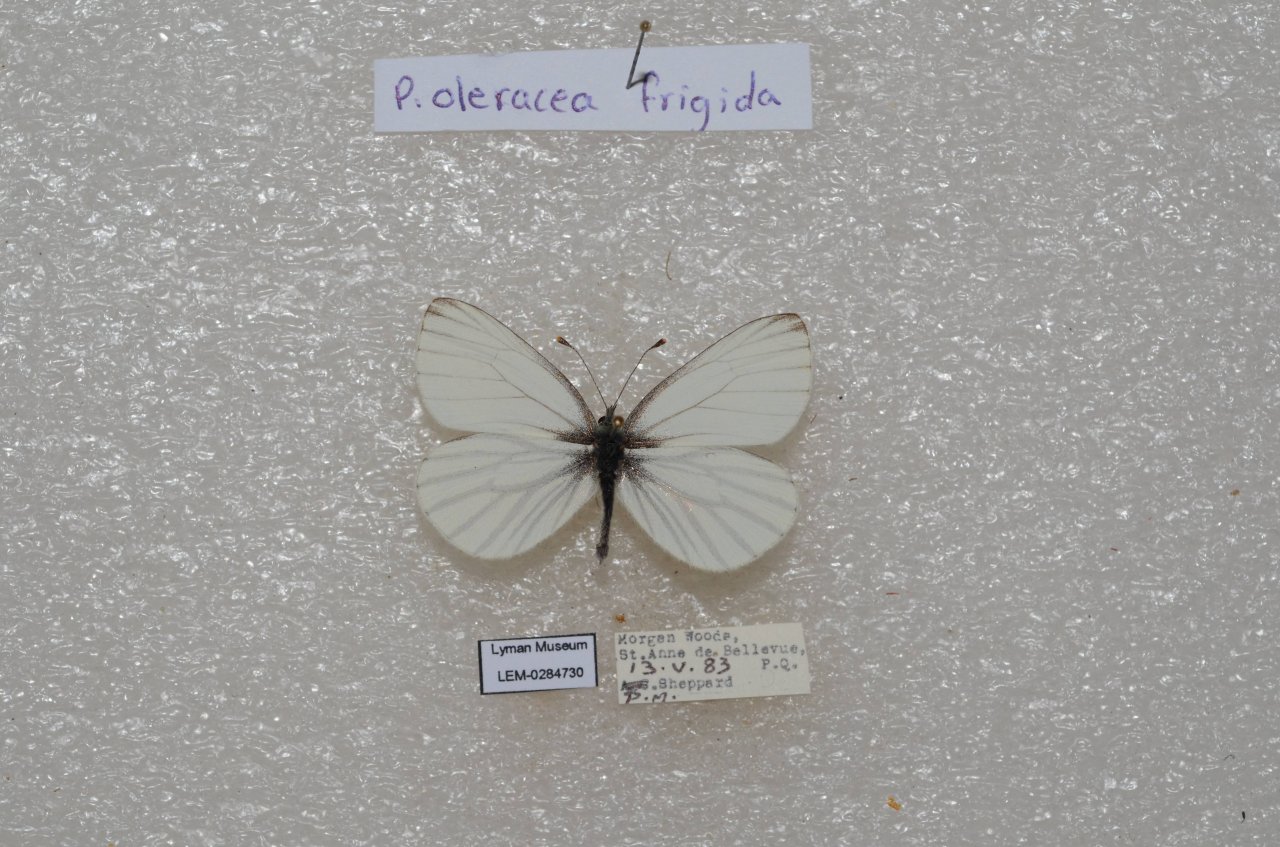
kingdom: Animalia
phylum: Arthropoda
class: Insecta
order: Lepidoptera
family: Pieridae
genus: Pieris
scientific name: Pieris oleracea
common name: Mustard White
